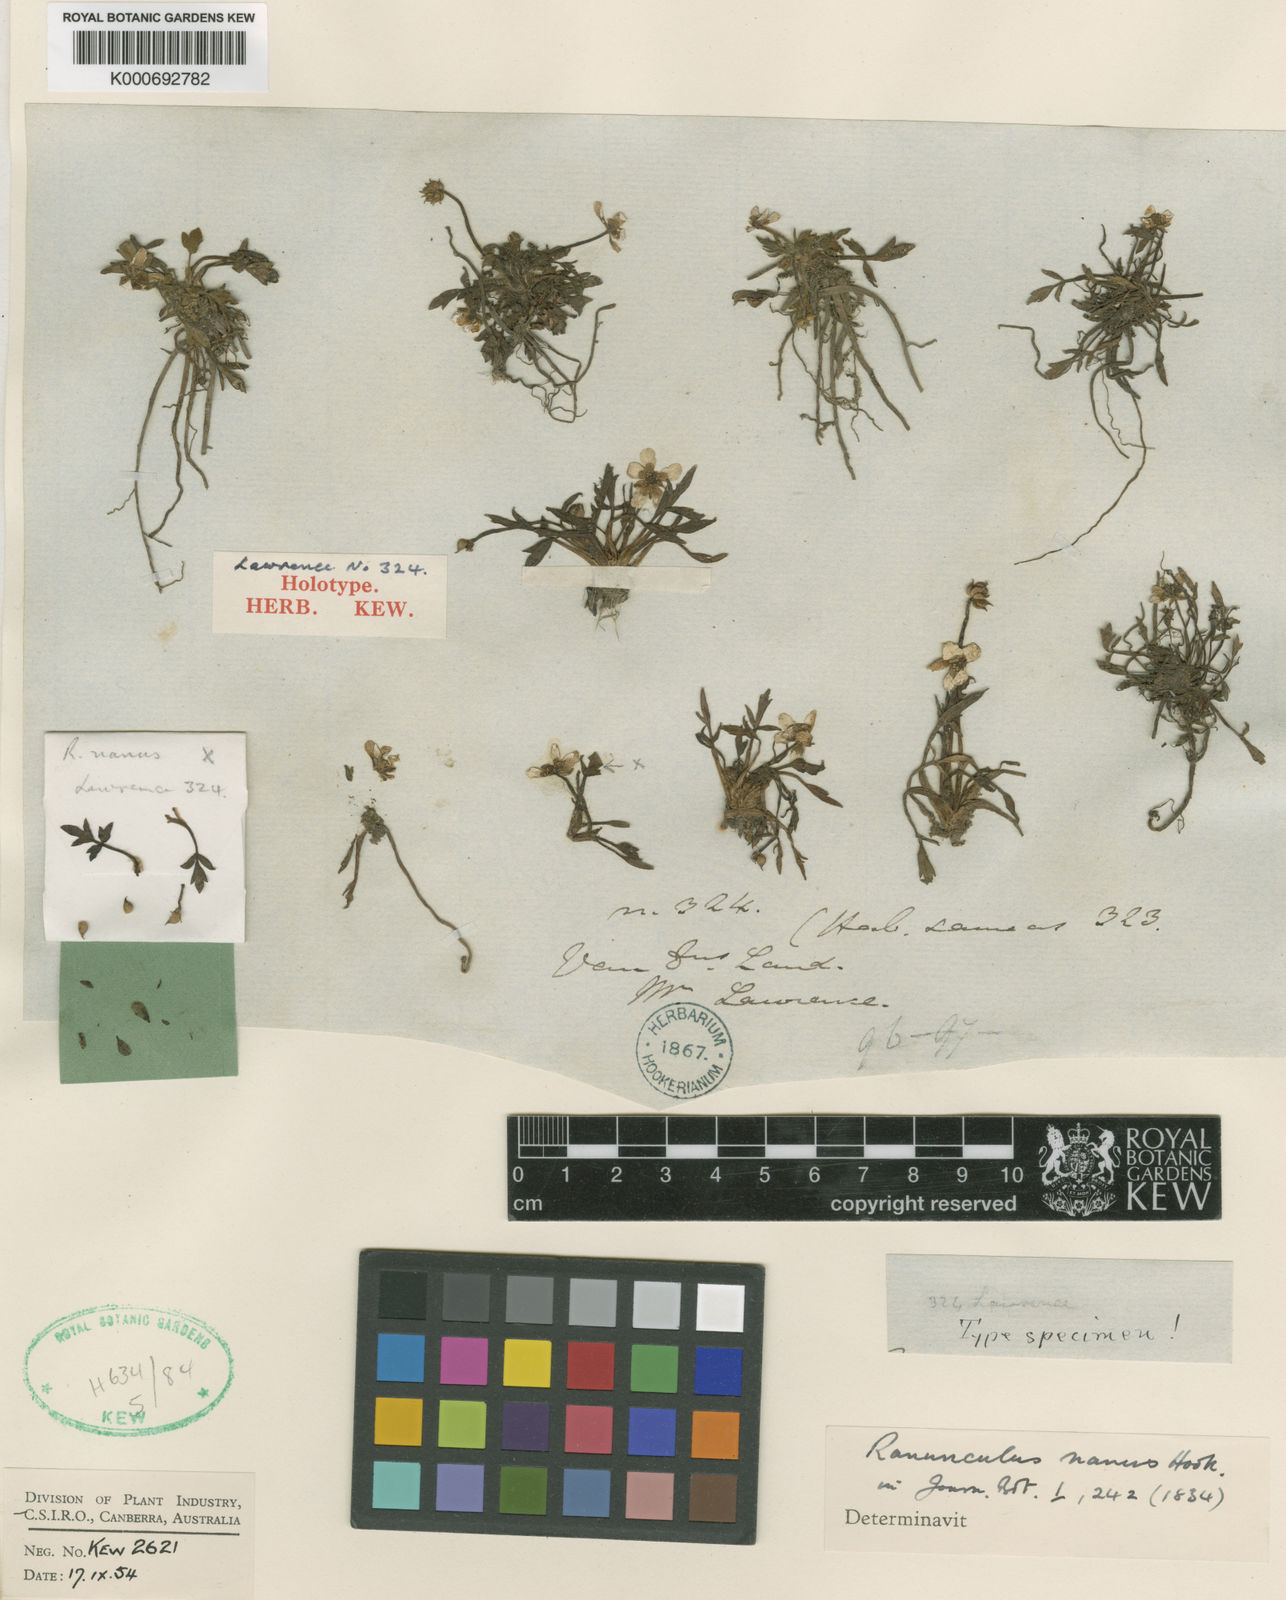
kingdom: Plantae
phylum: Tracheophyta
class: Magnoliopsida
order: Ranunculales
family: Ranunculaceae
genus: Ranunculus
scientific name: Ranunculus nanus
